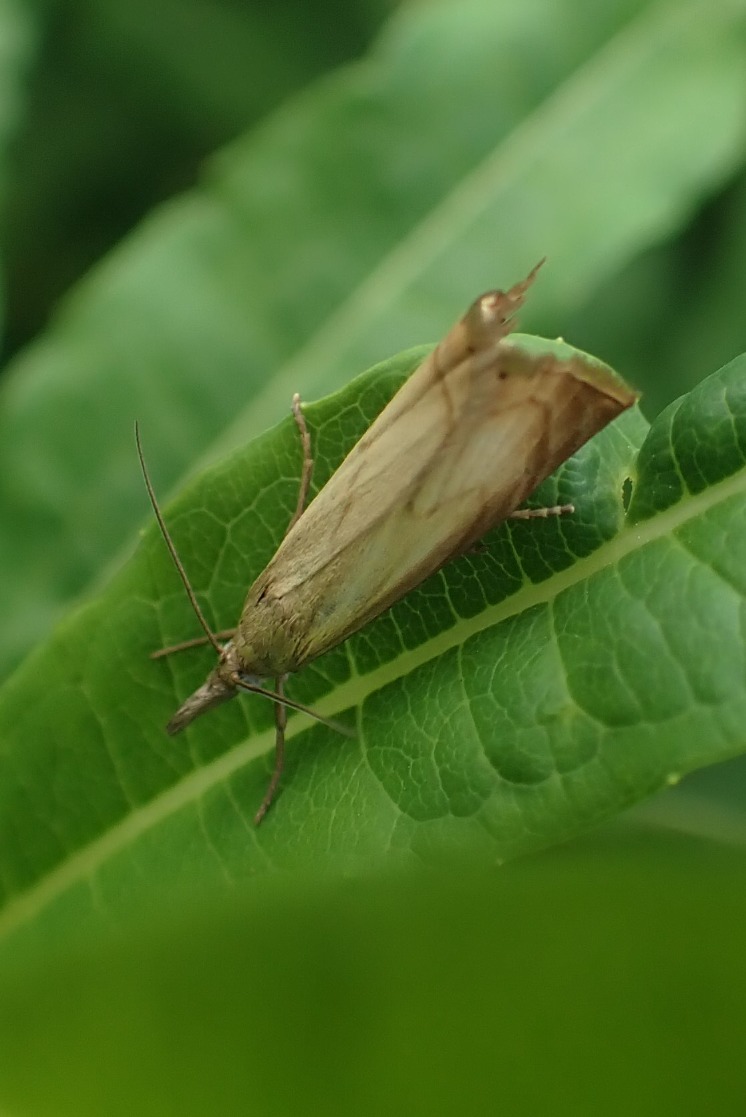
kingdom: Animalia
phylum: Arthropoda
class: Insecta
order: Lepidoptera
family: Crambidae
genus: Chrysoteuchia
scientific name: Chrysoteuchia culmella
